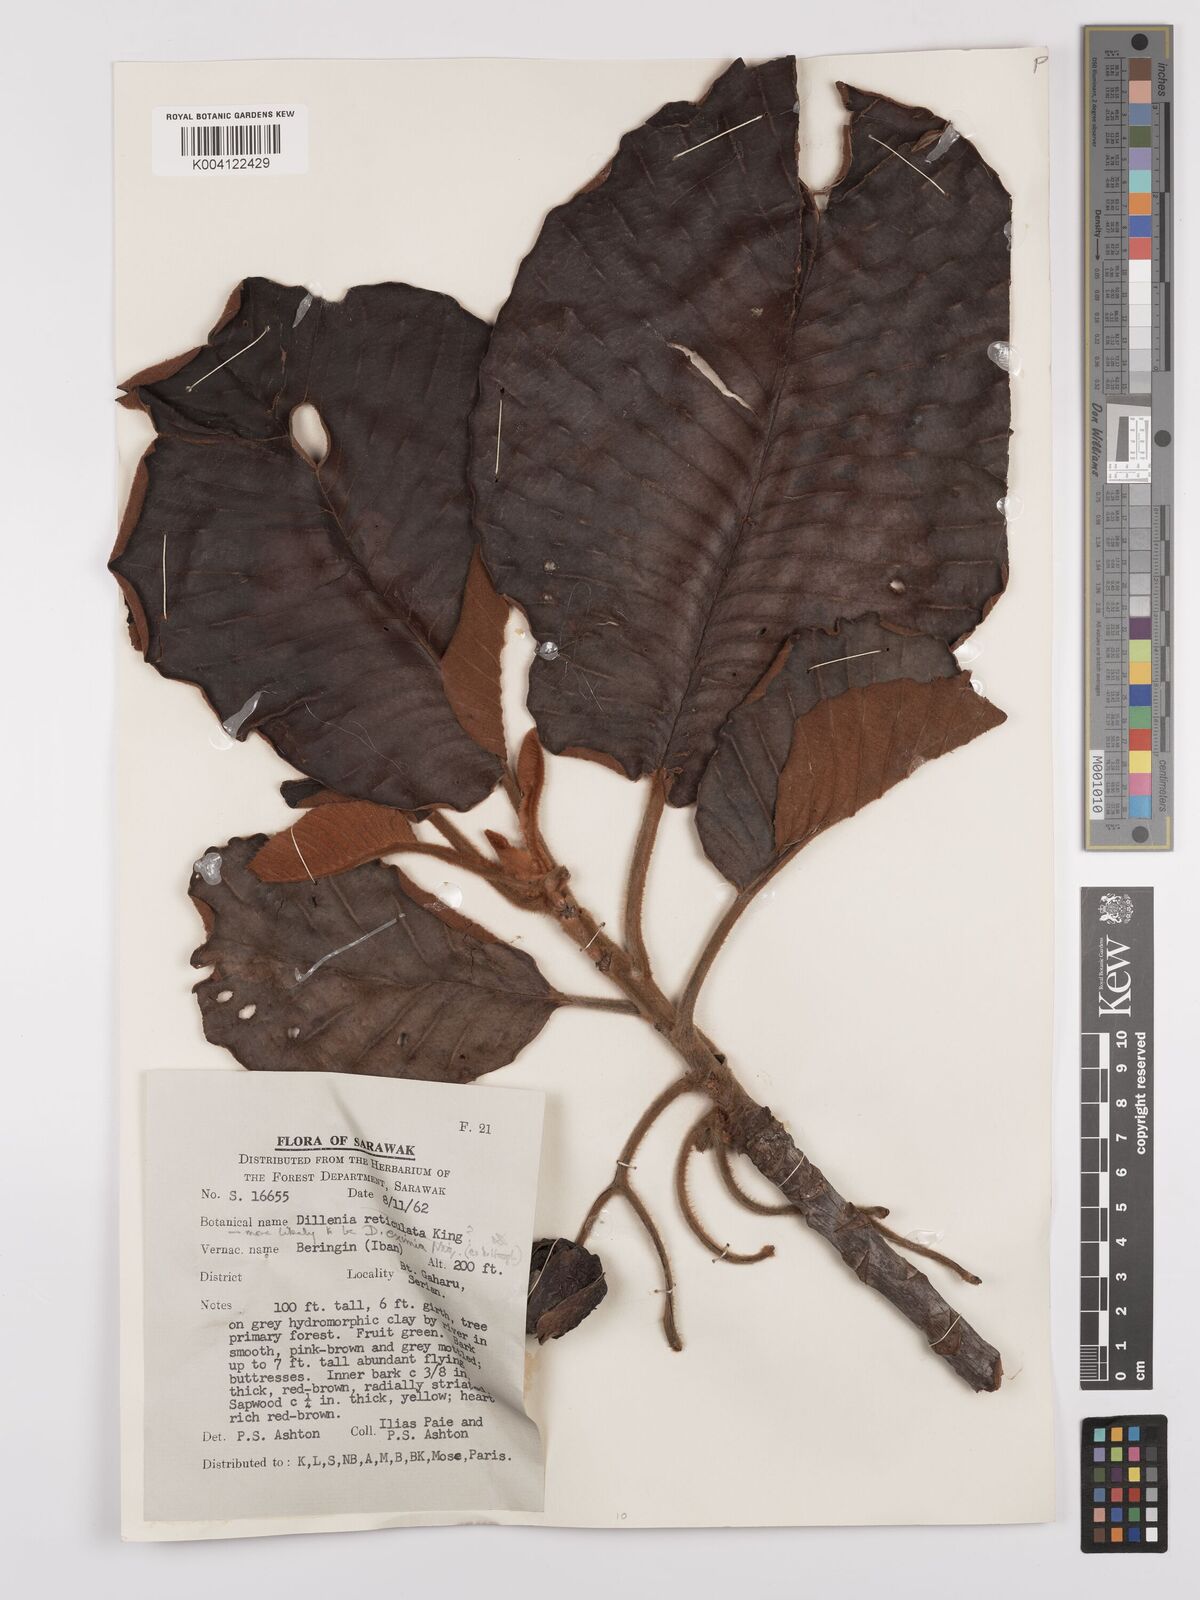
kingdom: Plantae
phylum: Tracheophyta
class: Magnoliopsida
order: Dilleniales
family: Dilleniaceae
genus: Dillenia
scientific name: Dillenia grandifolia
